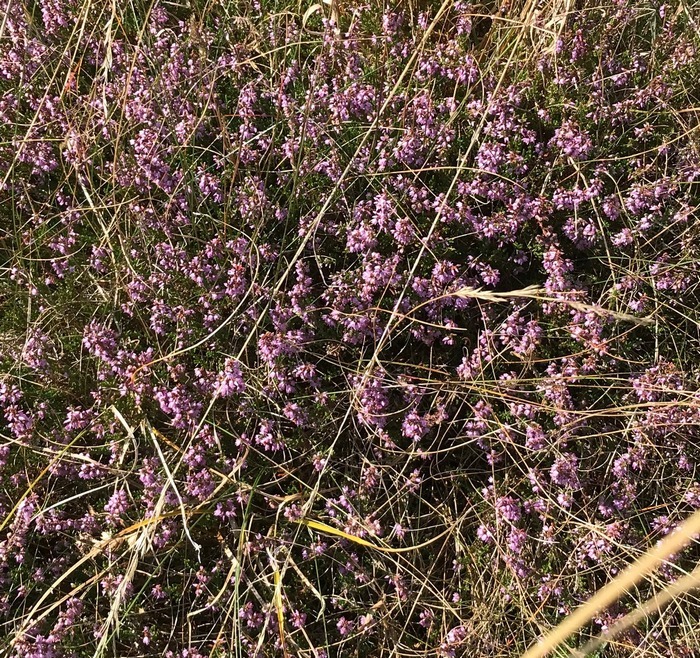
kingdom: Plantae
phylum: Tracheophyta
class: Magnoliopsida
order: Ericales
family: Ericaceae
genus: Calluna
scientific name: Calluna vulgaris
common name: Hedelyng
